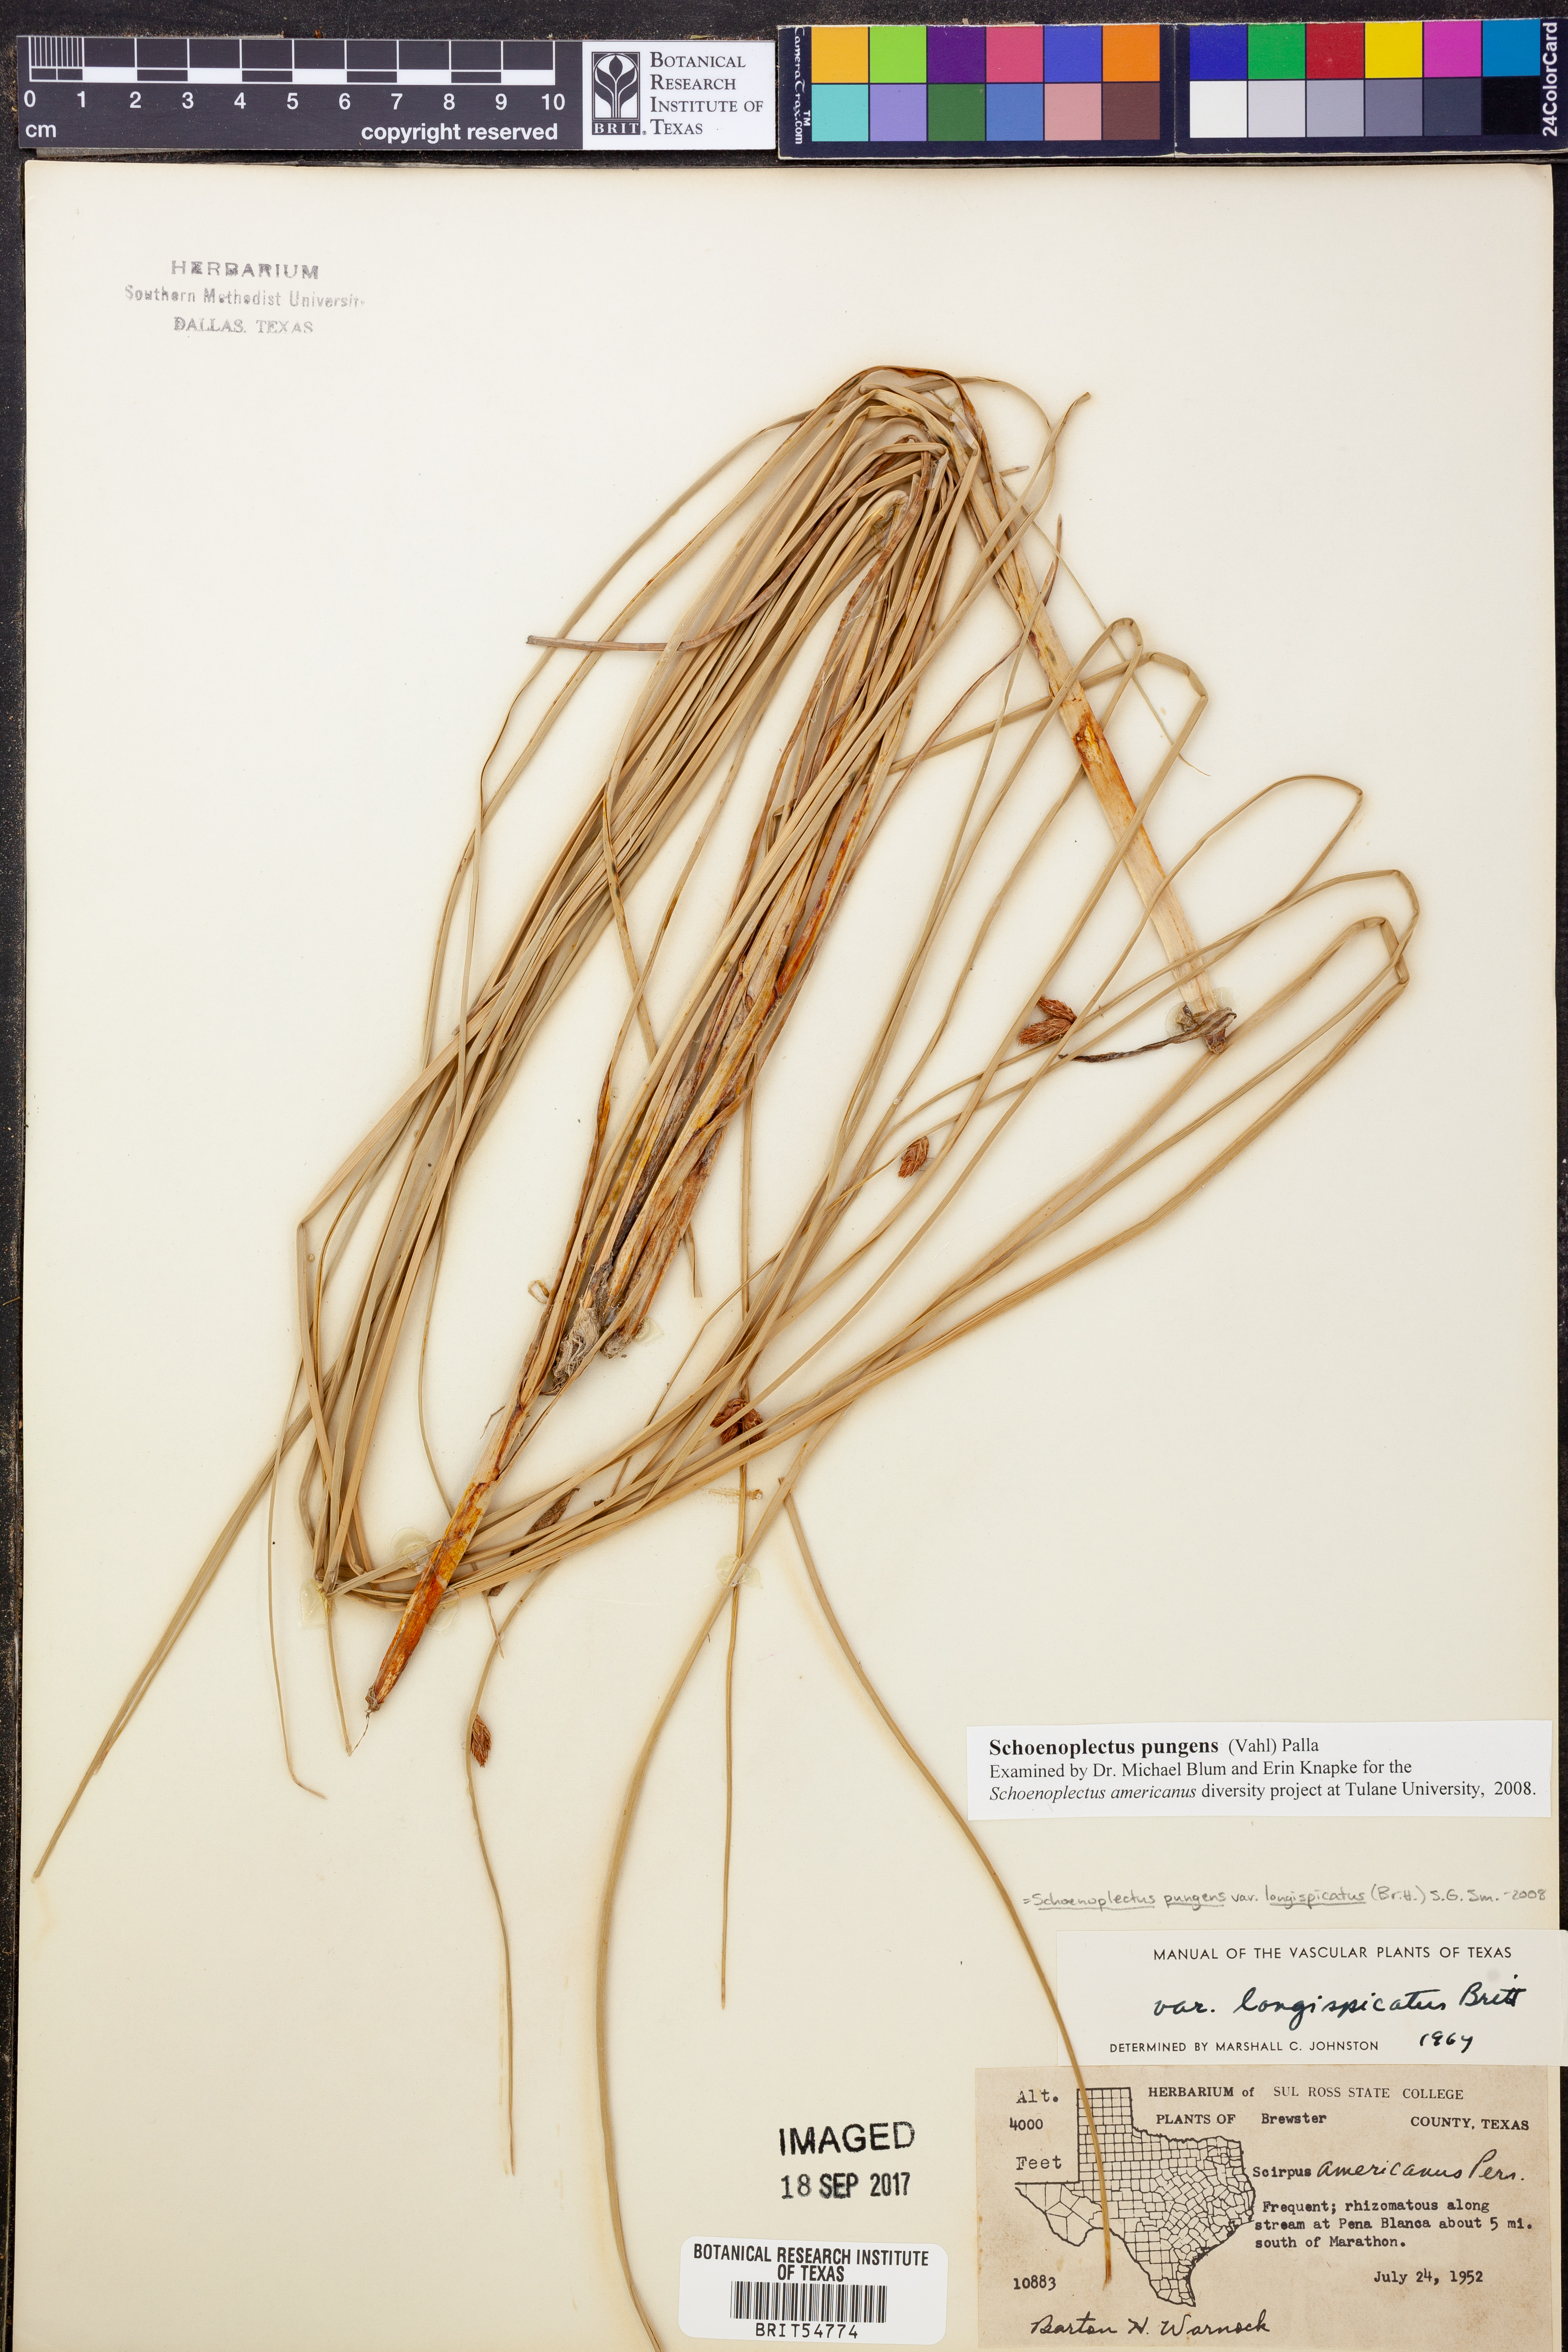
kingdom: Plantae
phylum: Tracheophyta
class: Liliopsida
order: Poales
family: Cyperaceae
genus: Schoenoplectus
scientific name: Schoenoplectus pungens
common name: Sharp club-rush
